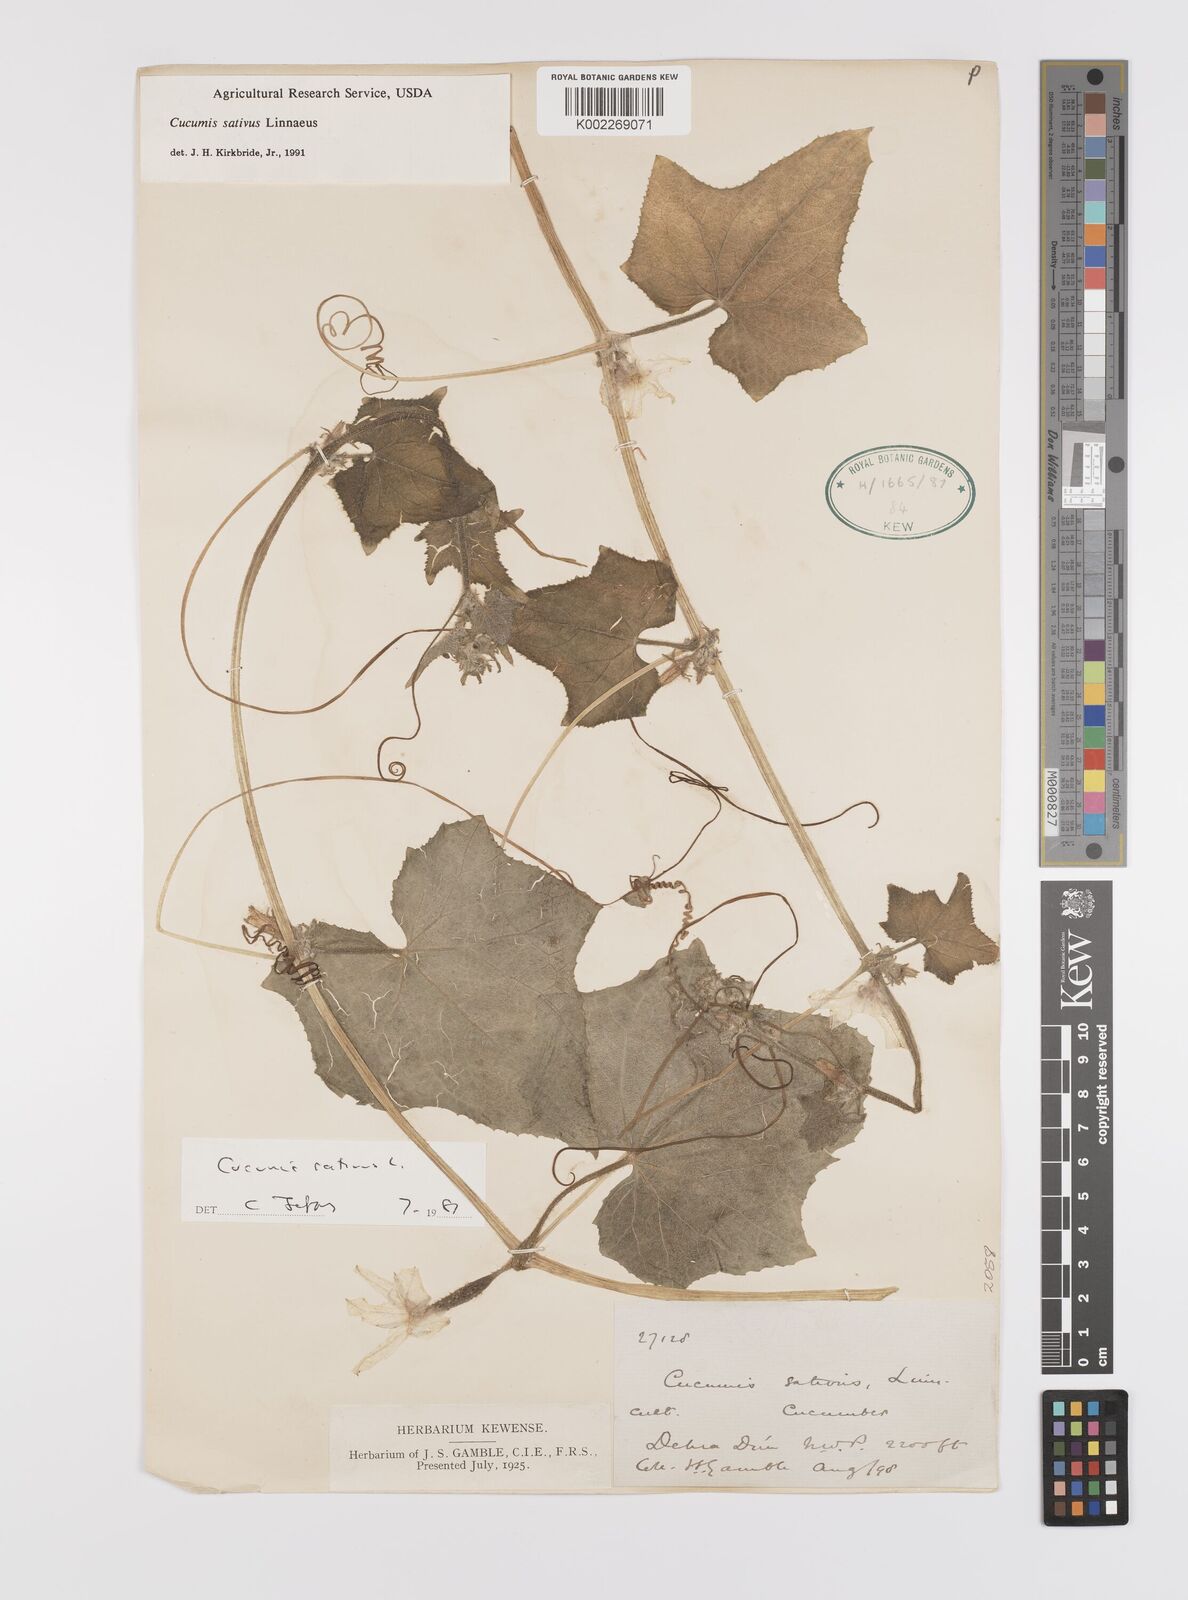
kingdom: Plantae
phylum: Tracheophyta
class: Magnoliopsida
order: Cucurbitales
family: Cucurbitaceae
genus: Cucumis
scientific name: Cucumis sativus
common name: Cucumber
